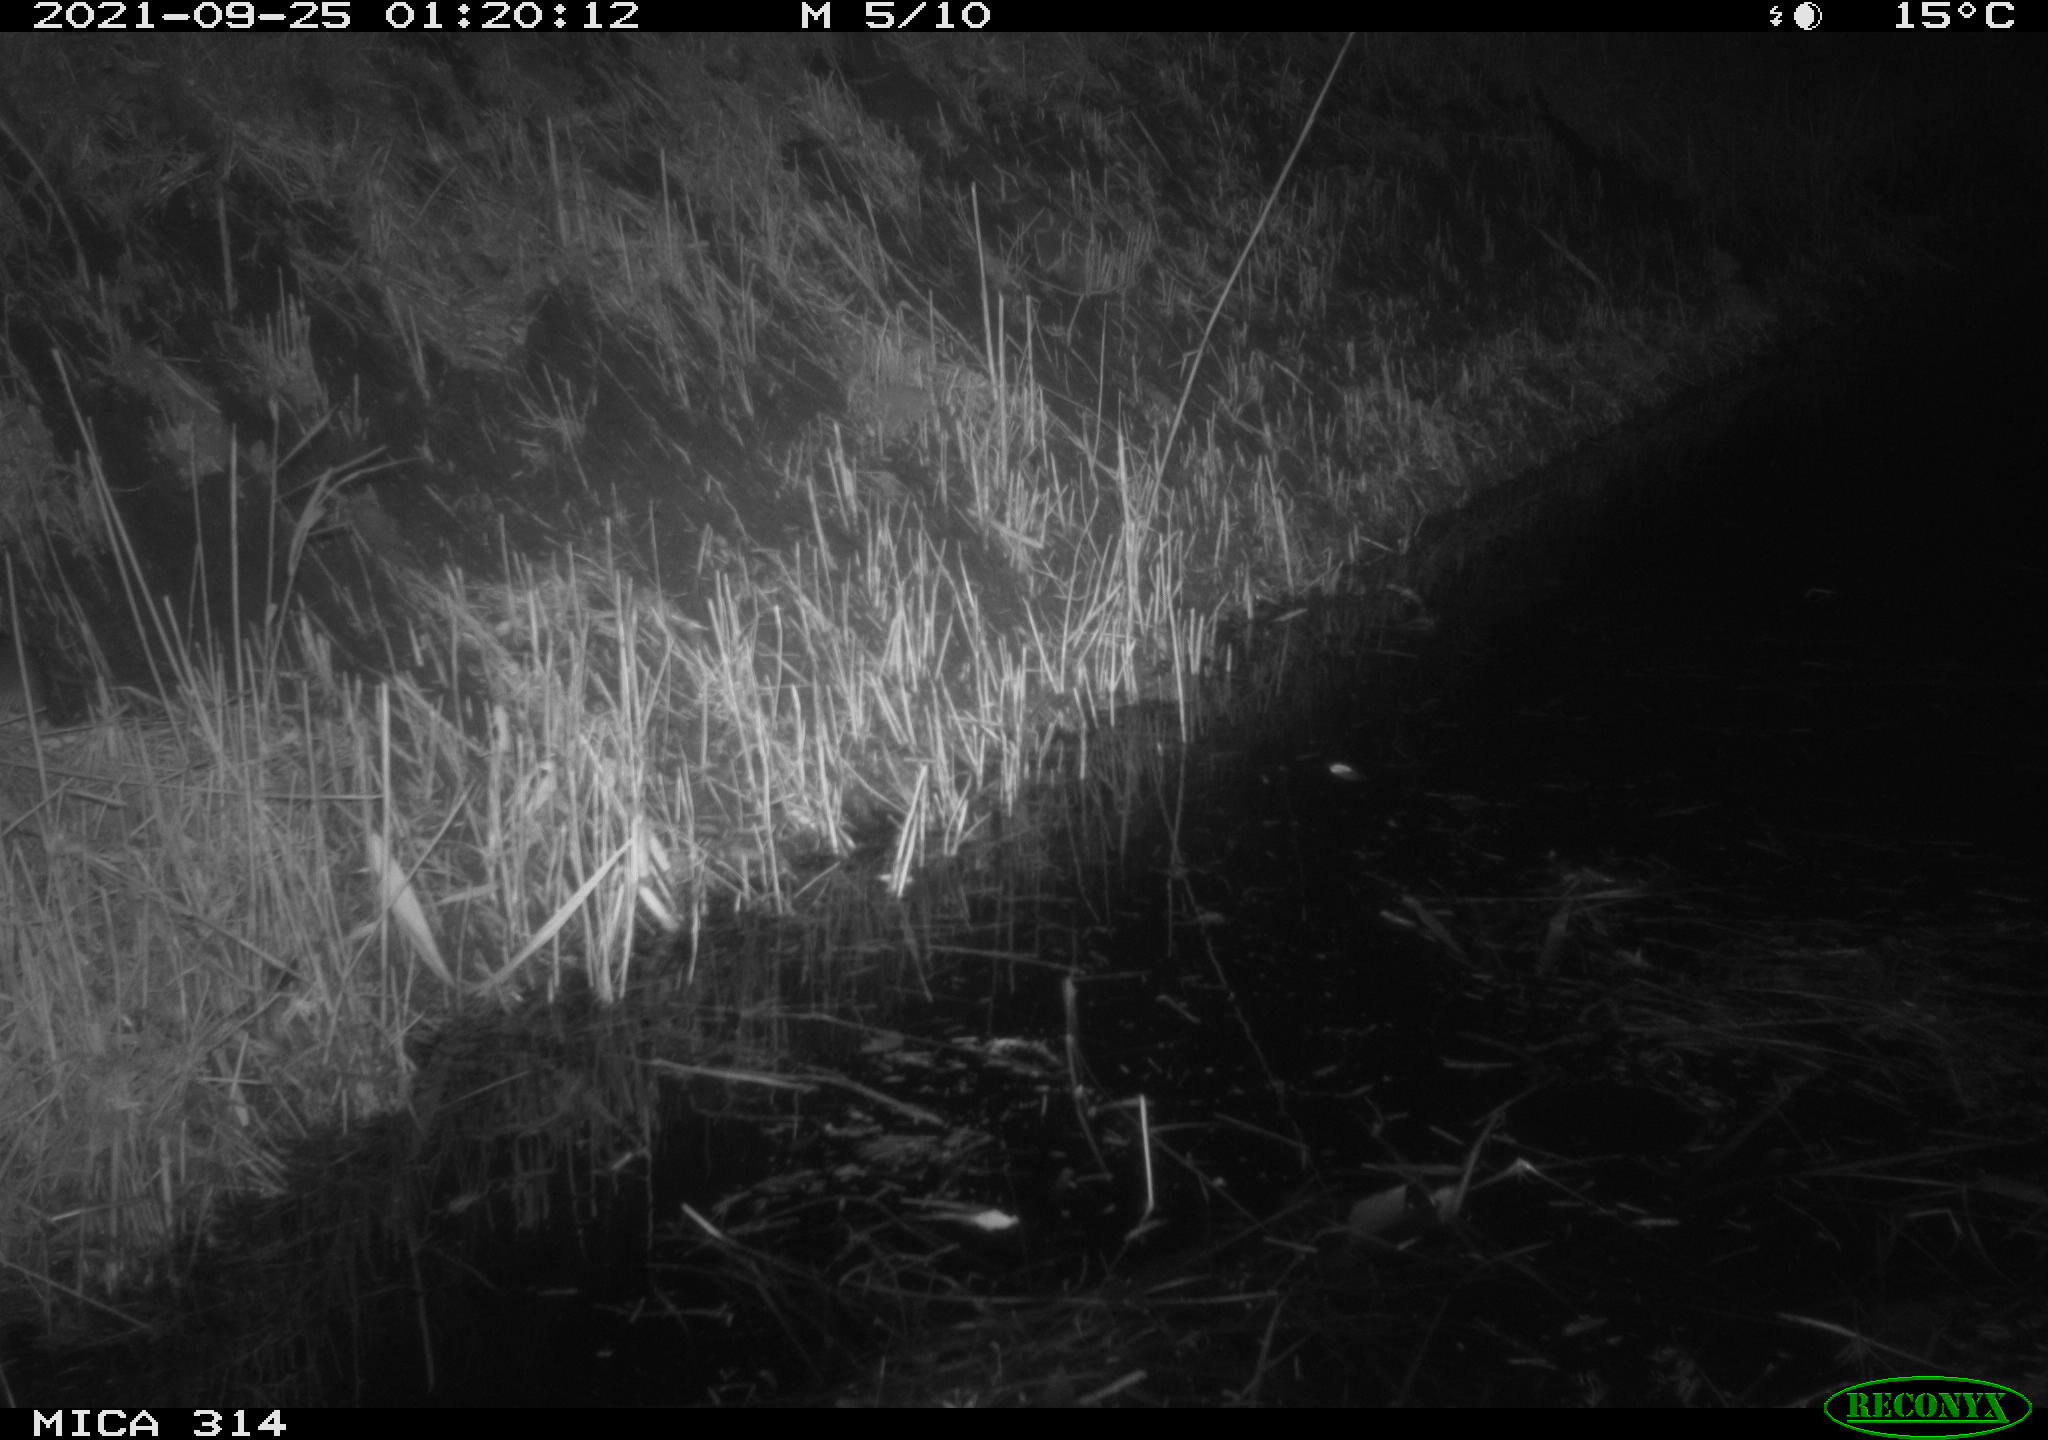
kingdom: Animalia
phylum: Chordata
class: Mammalia
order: Rodentia
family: Muridae
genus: Rattus
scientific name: Rattus norvegicus
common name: Brown rat
